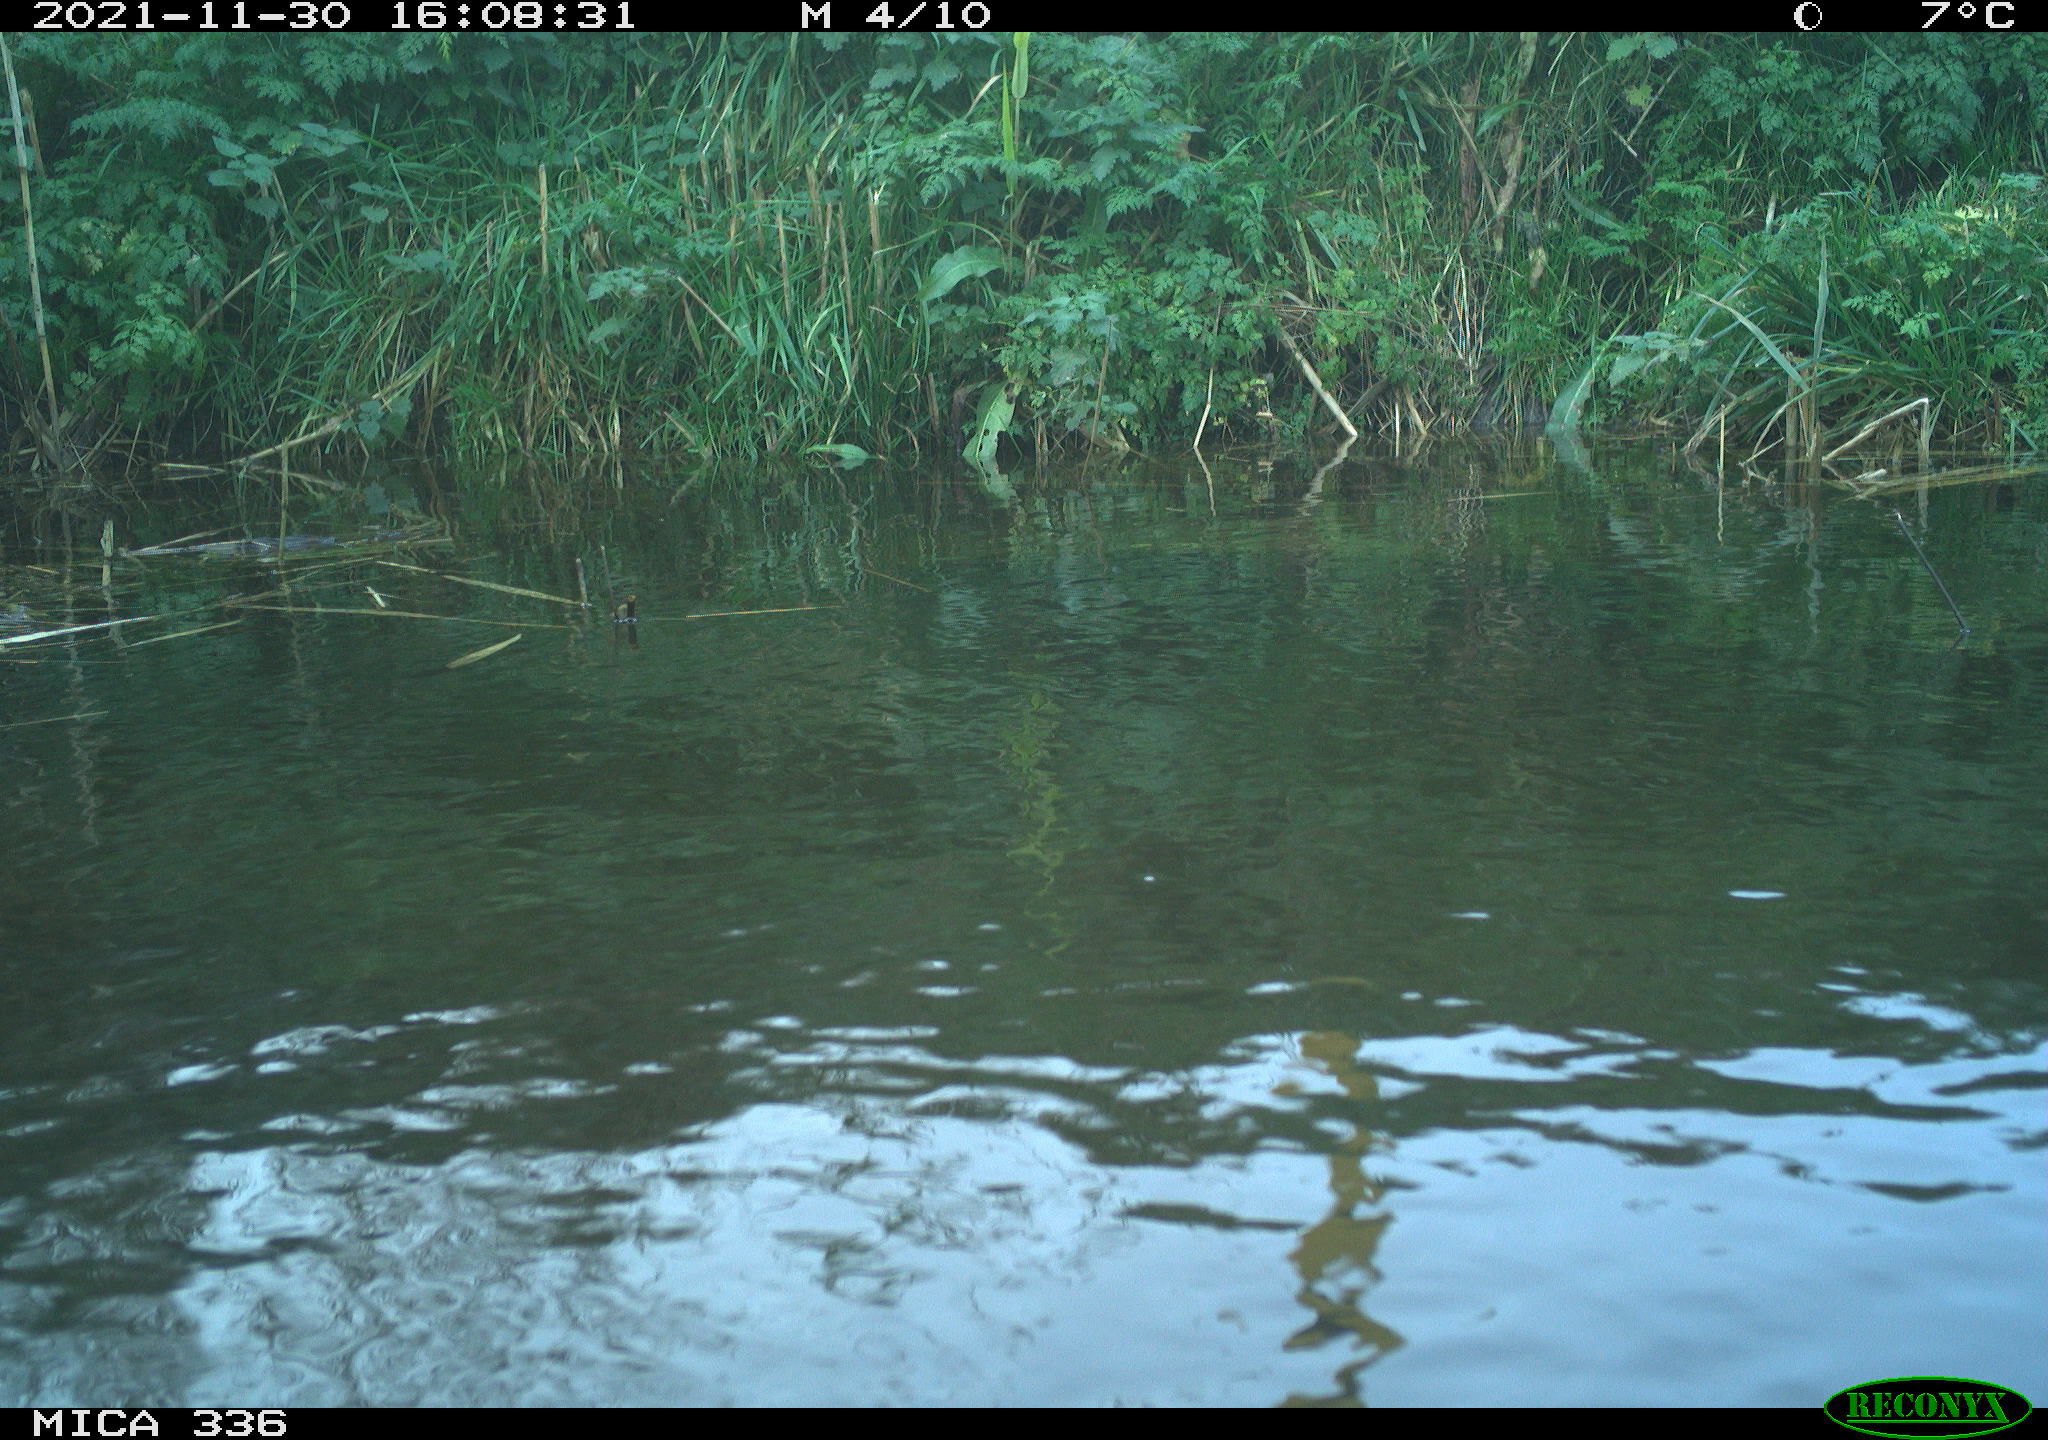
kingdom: Animalia
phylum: Chordata
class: Aves
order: Gruiformes
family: Rallidae
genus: Gallinula
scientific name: Gallinula chloropus
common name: Common moorhen
